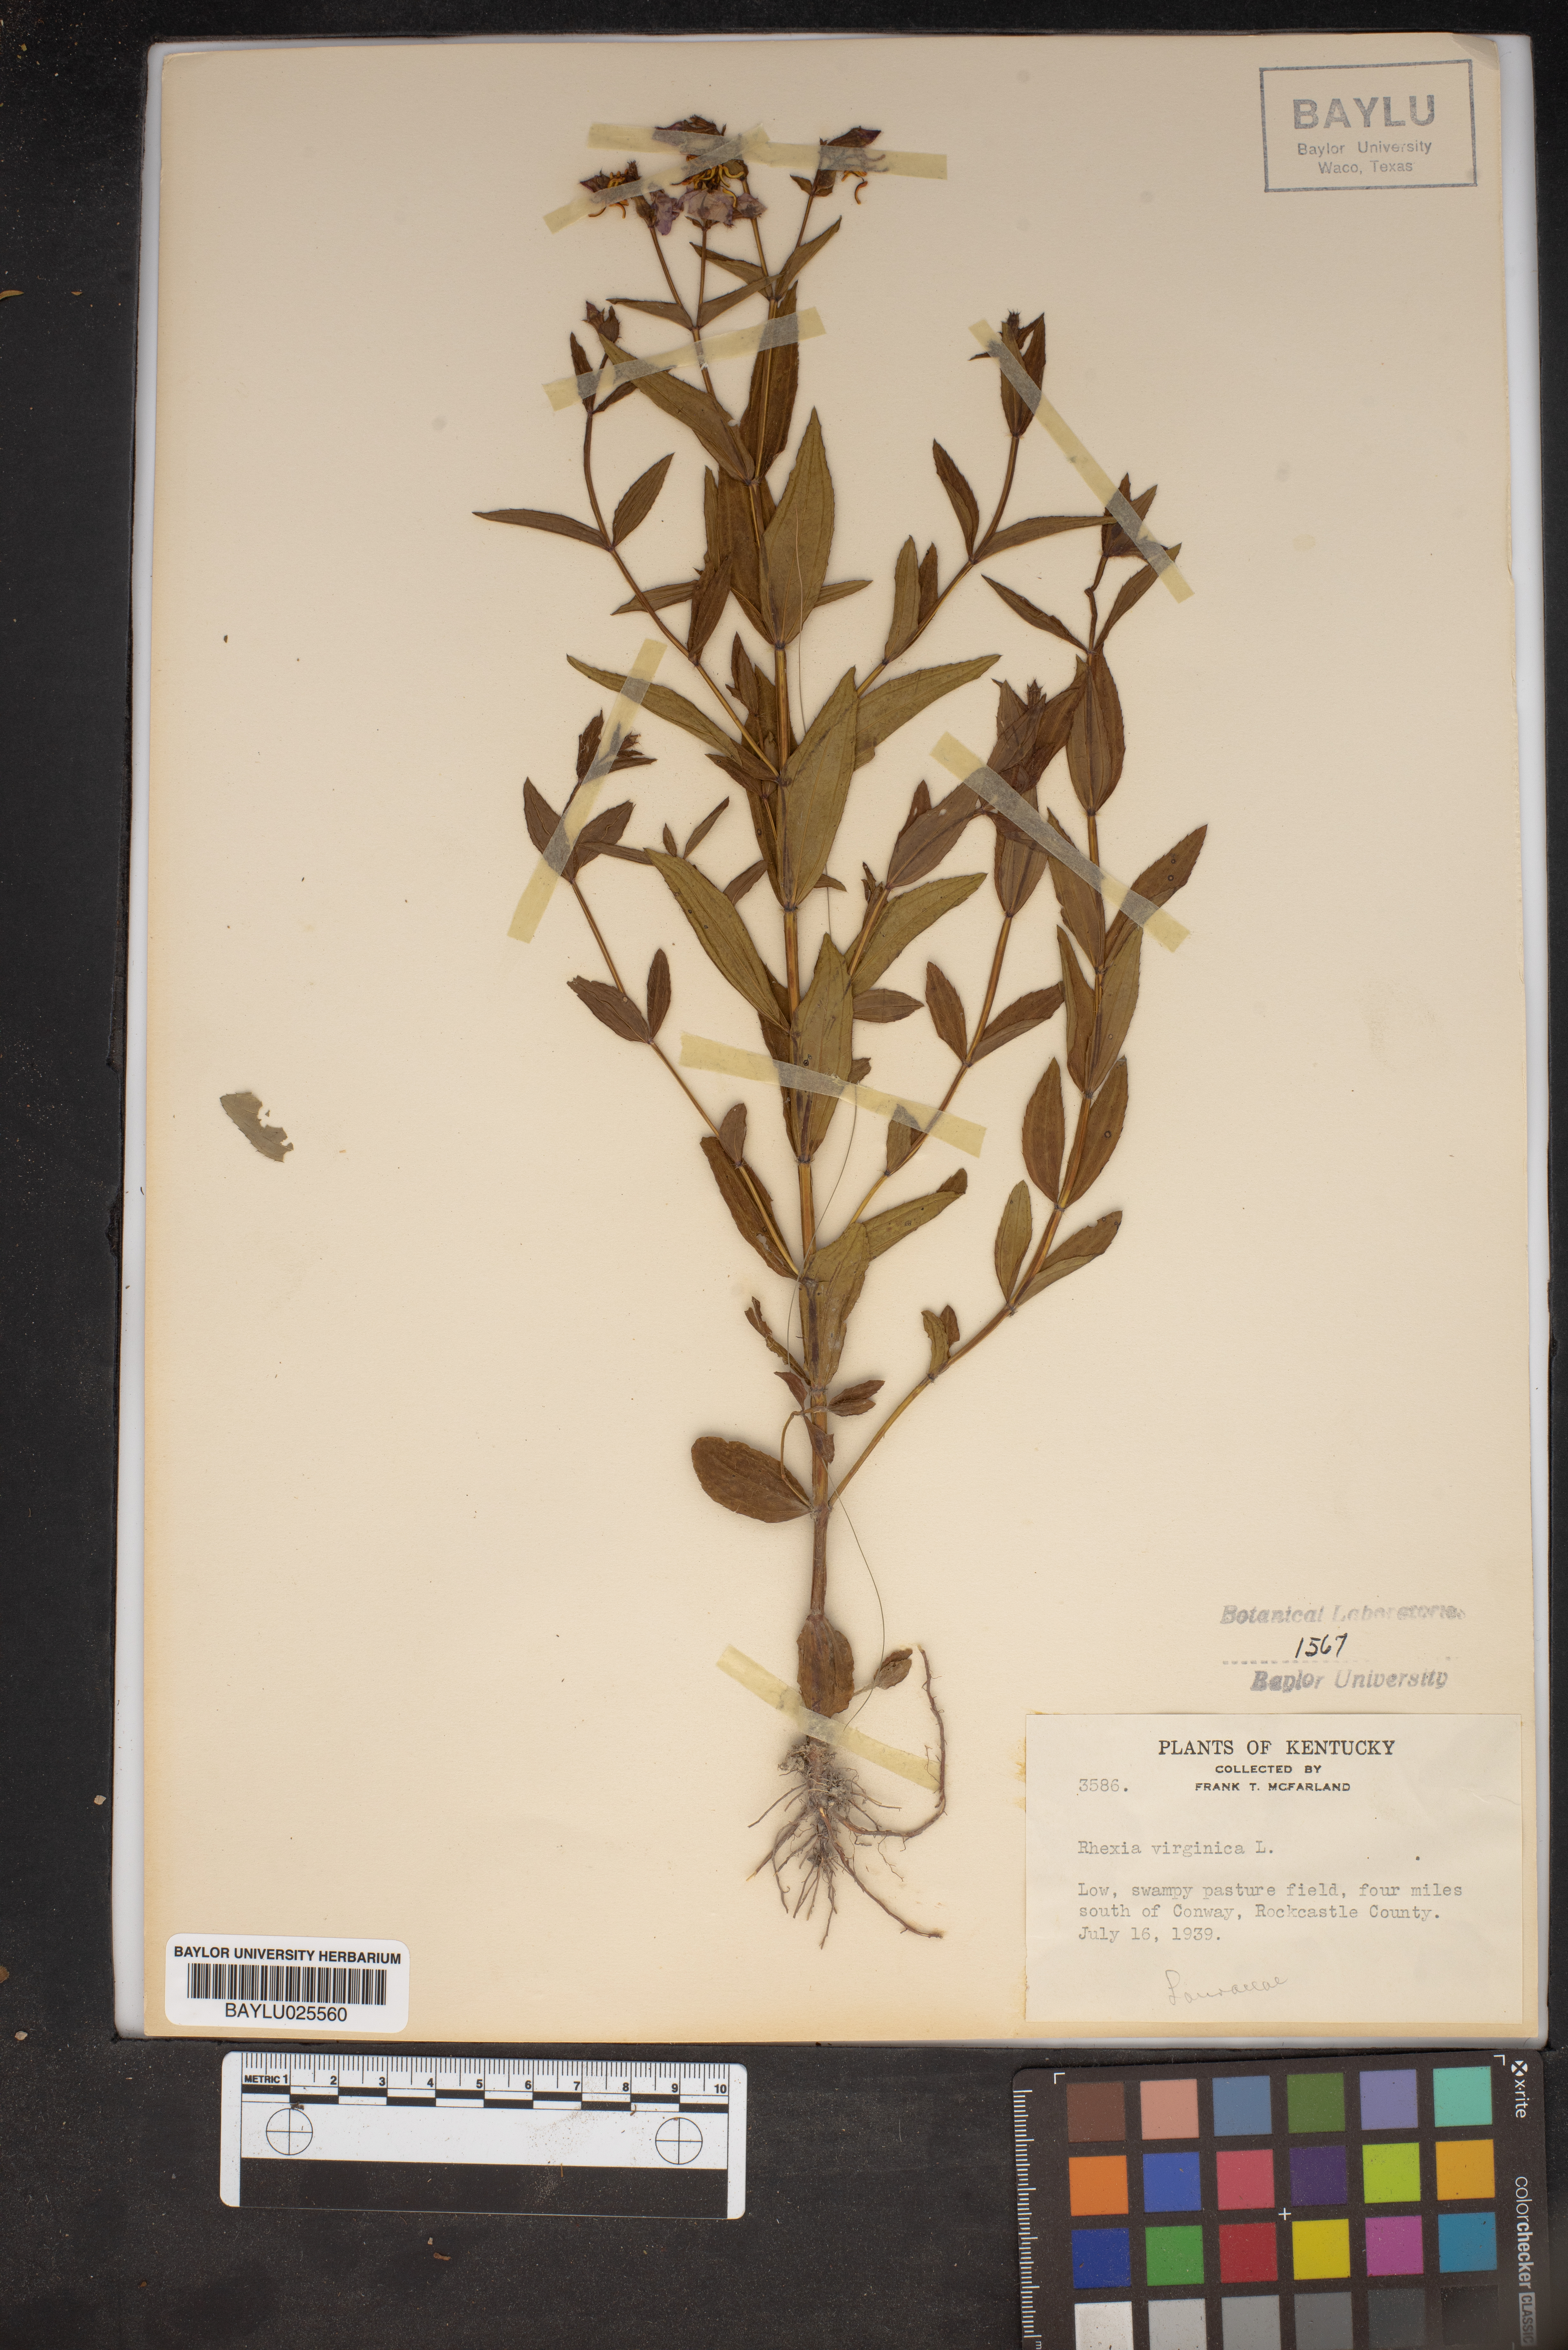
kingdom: Plantae
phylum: Tracheophyta
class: Magnoliopsida
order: Myrtales
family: Melastomataceae
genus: Rhexia
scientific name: Rhexia virginica
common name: Common meadow beauty
